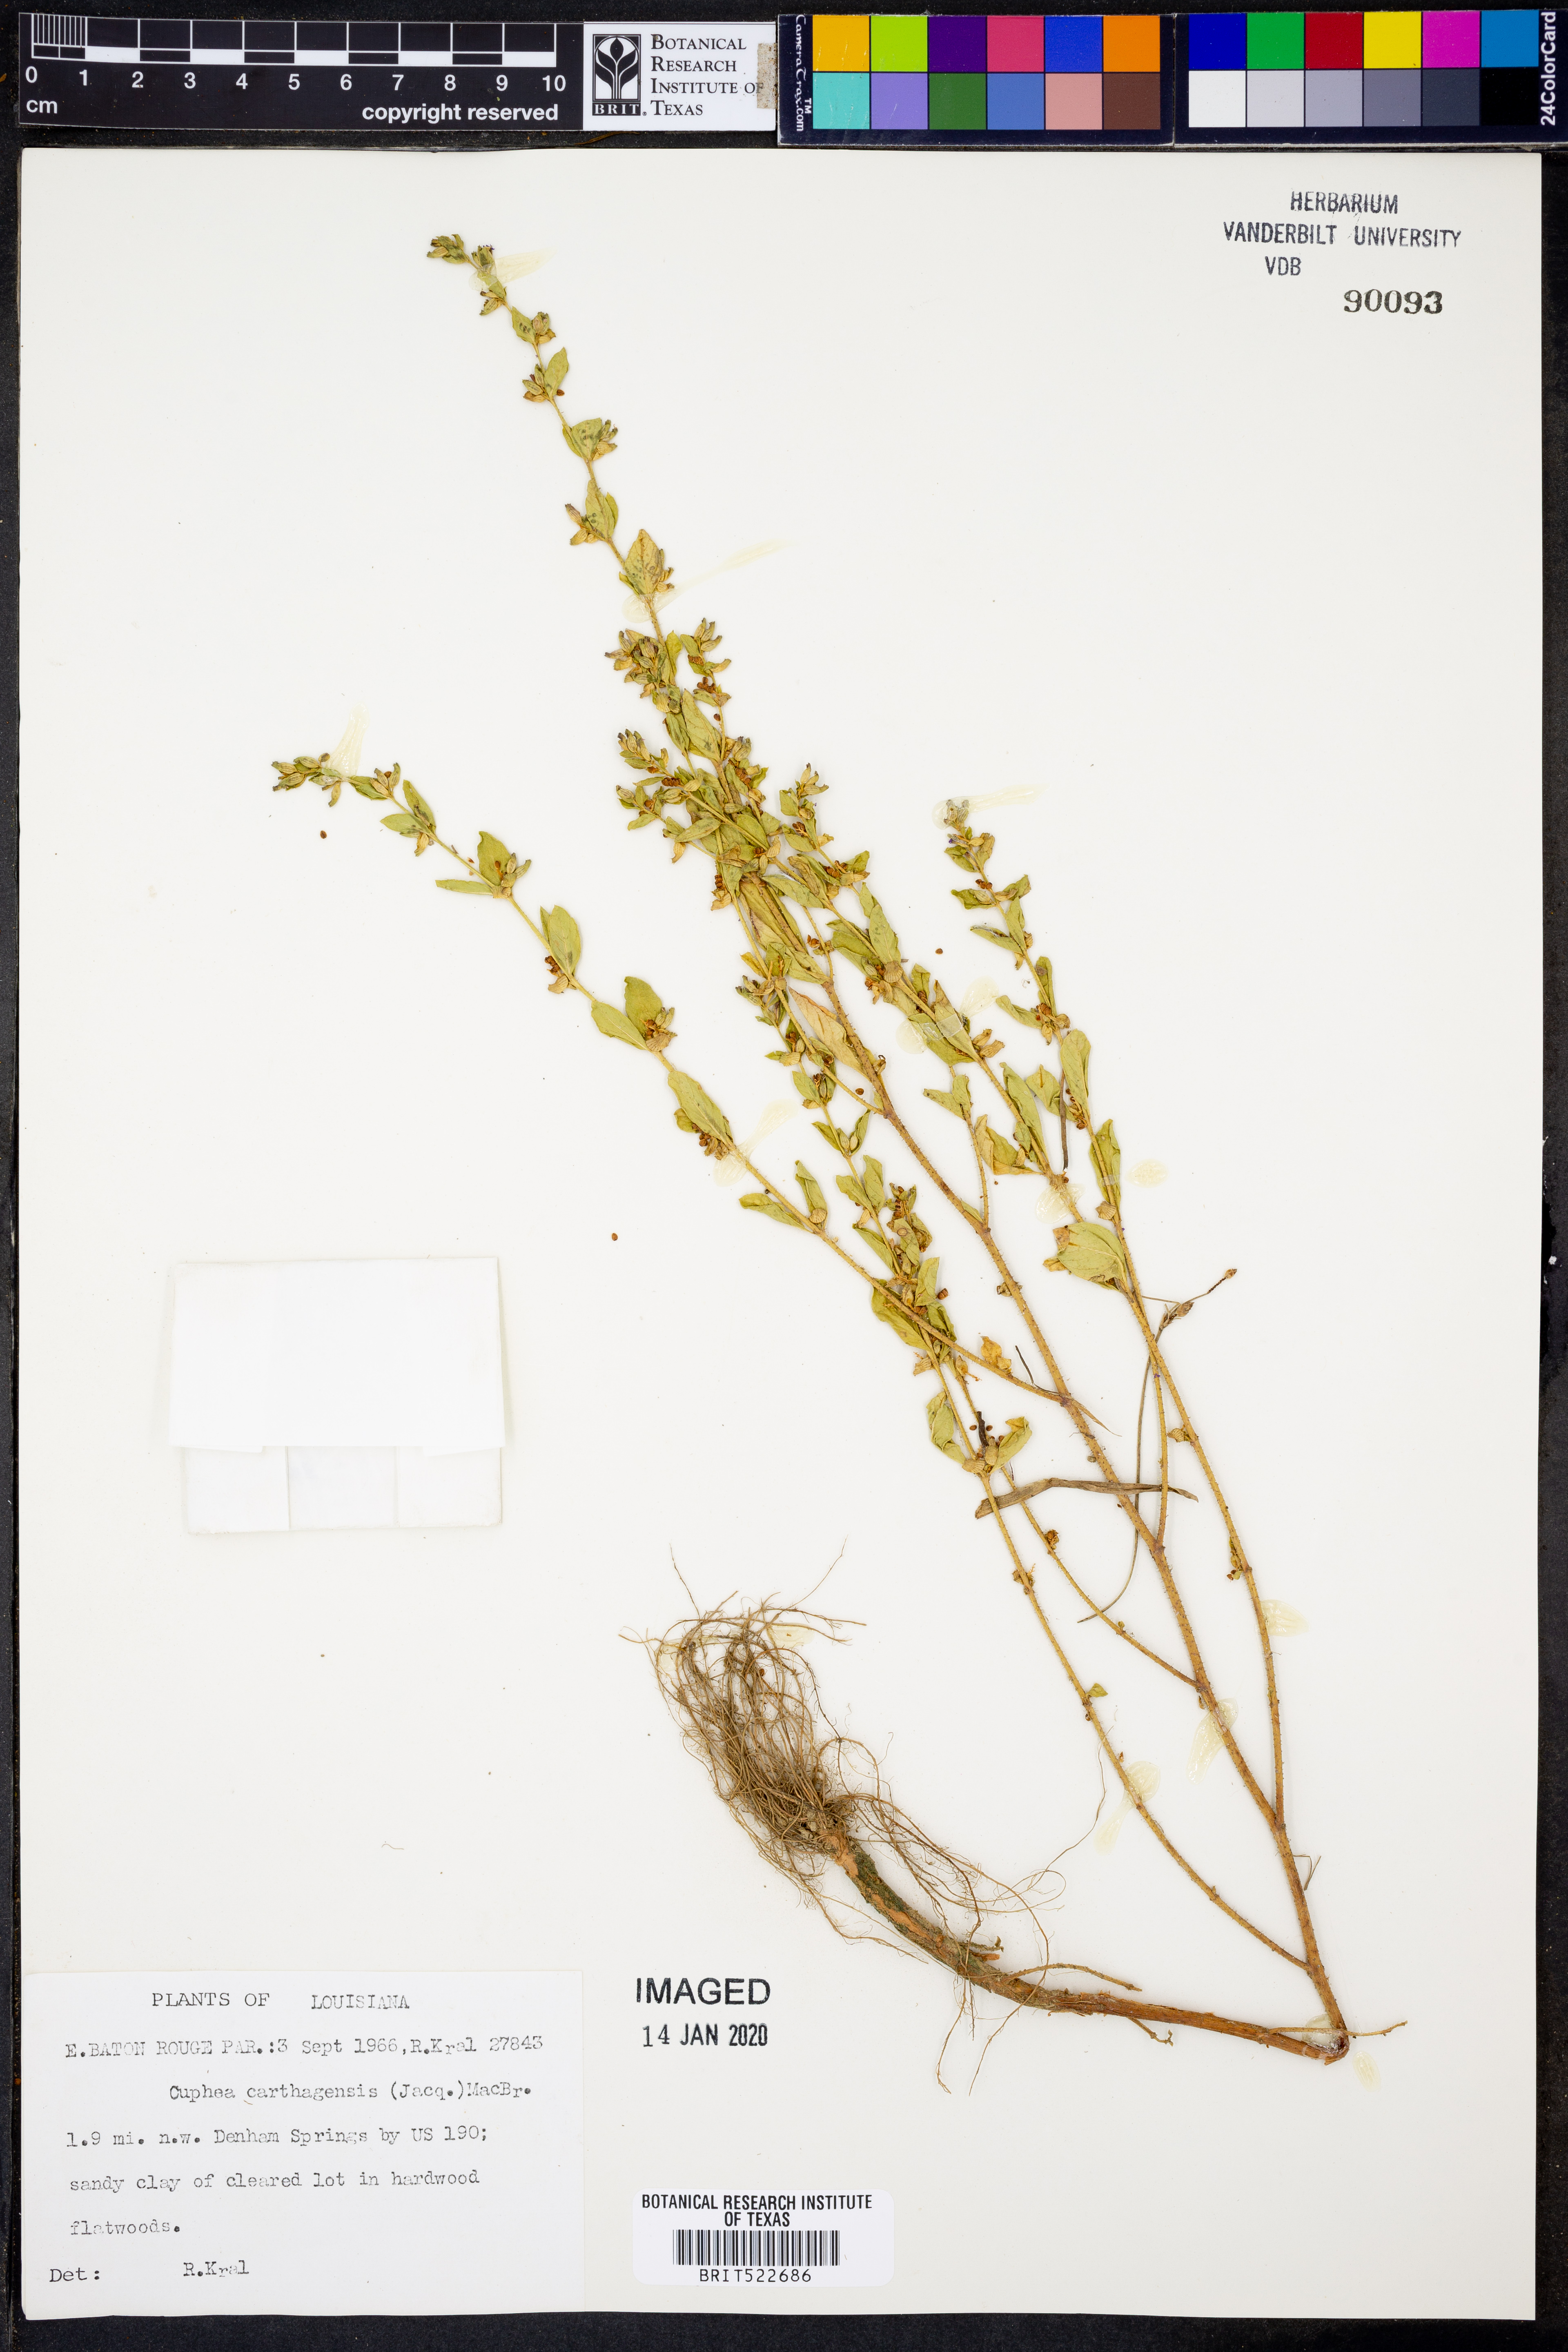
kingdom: Plantae
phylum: Tracheophyta
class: Magnoliopsida
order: Myrtales
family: Lythraceae
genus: Cuphea
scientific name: Cuphea carthagenensis
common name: Colombian waxweed
